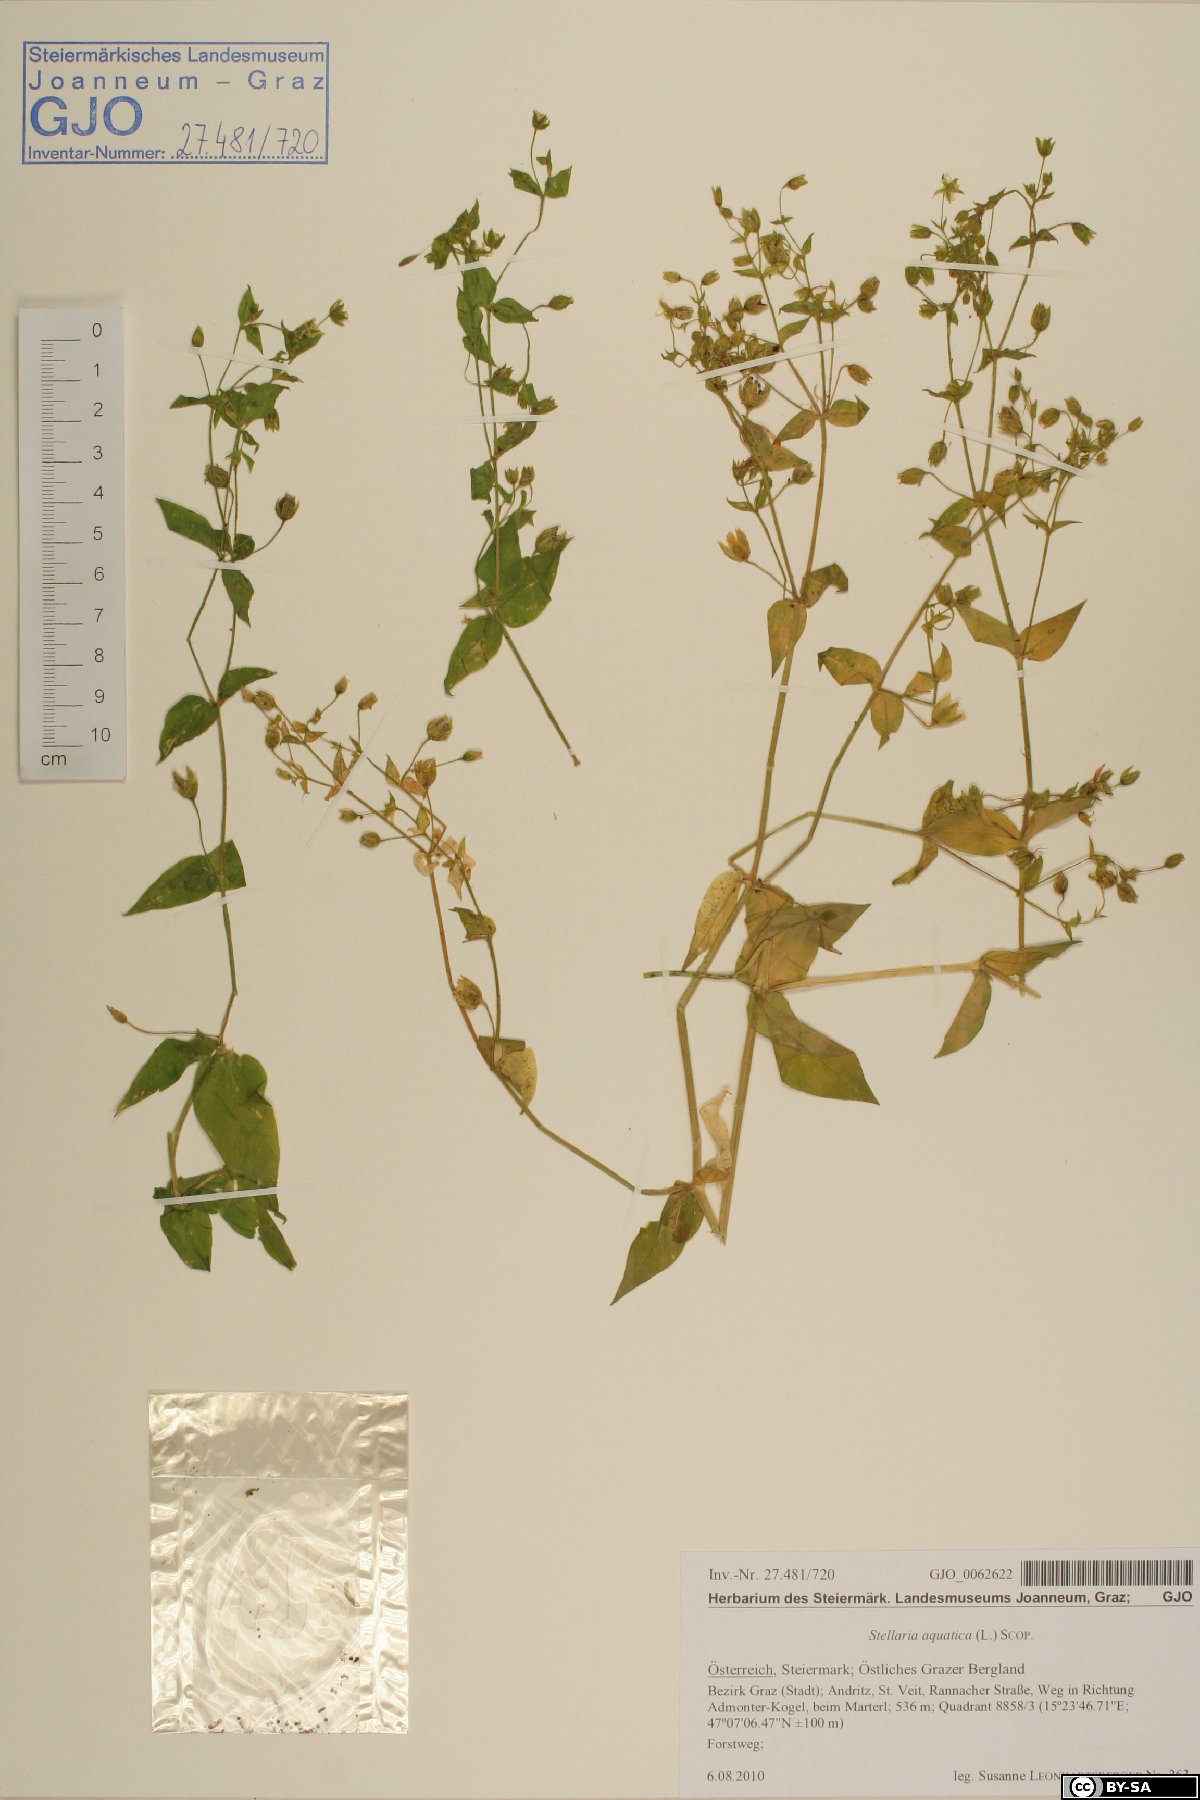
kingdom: Plantae
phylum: Tracheophyta
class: Magnoliopsida
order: Caryophyllales
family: Caryophyllaceae
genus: Stellaria
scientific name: Stellaria aquatica
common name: Water chickweed
